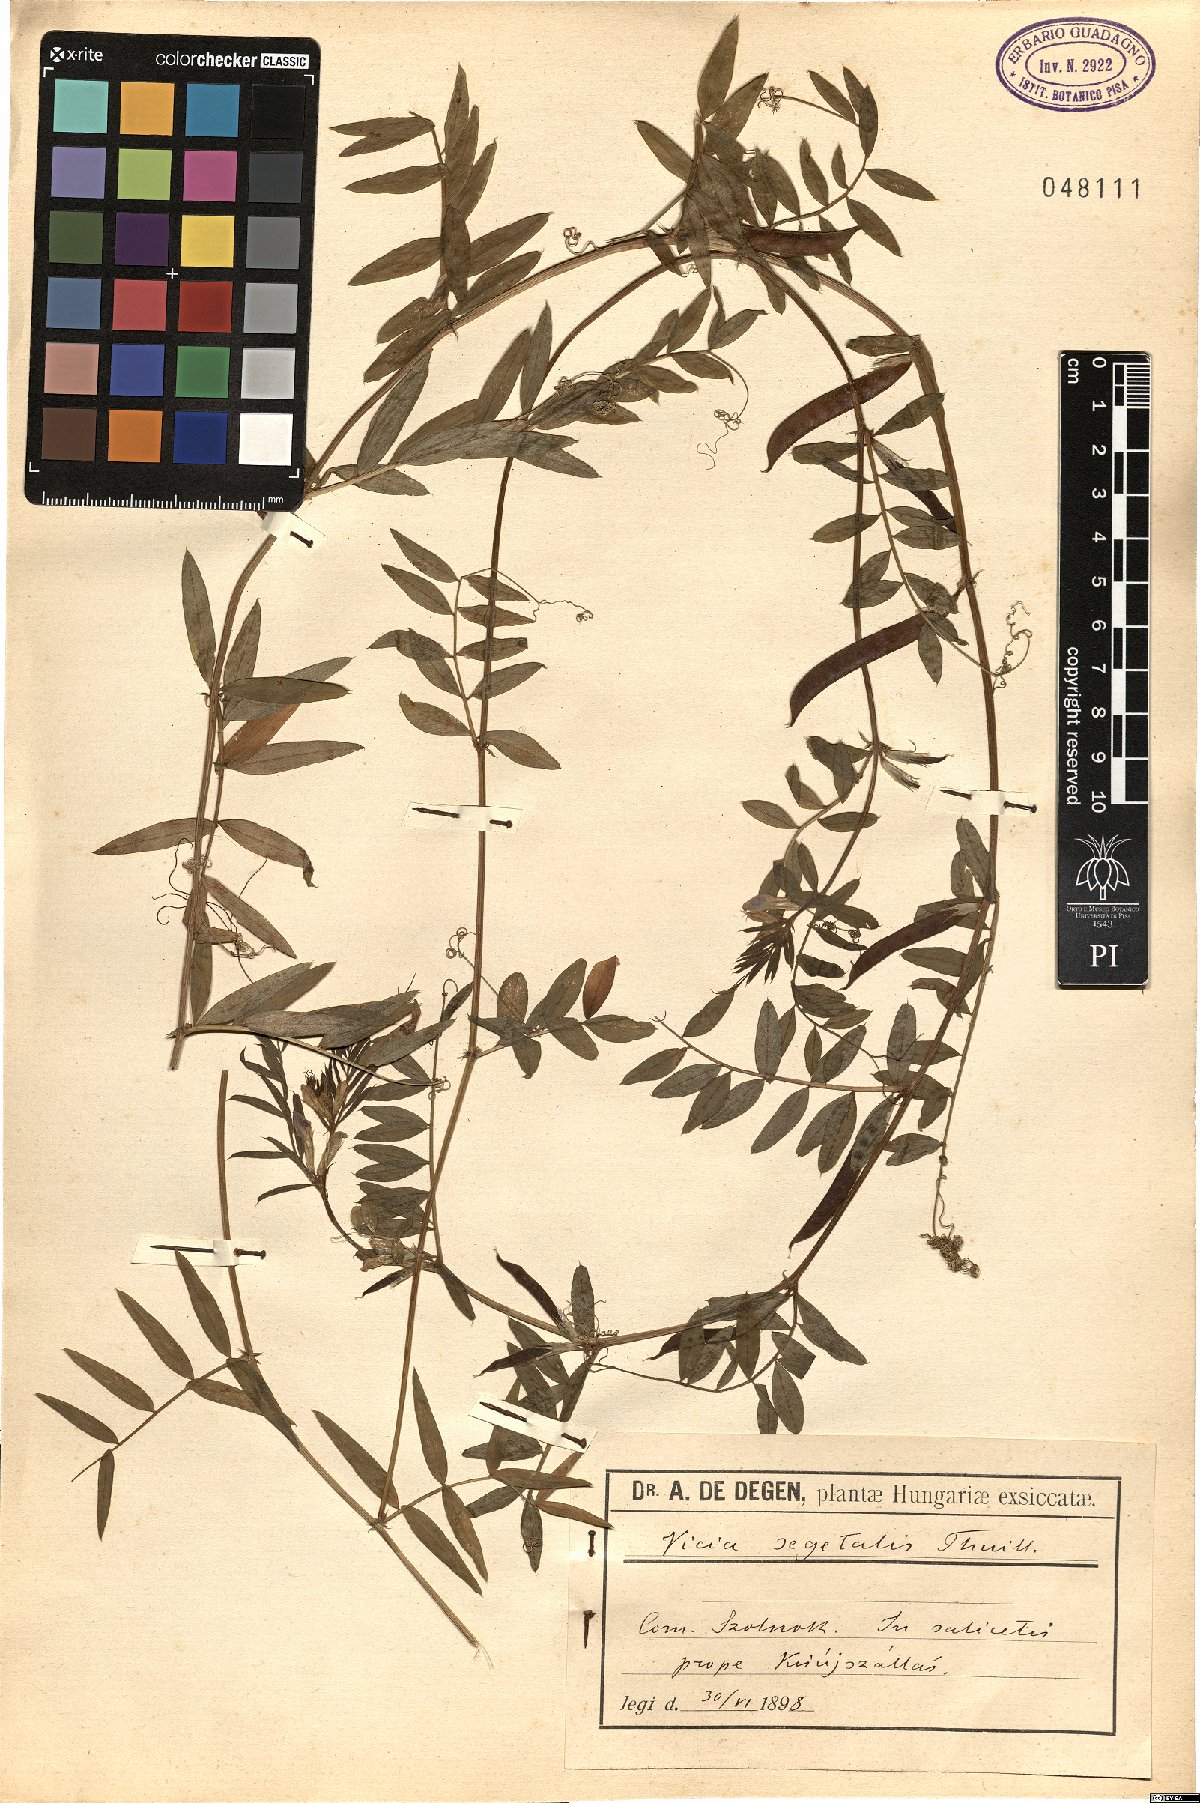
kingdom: Plantae
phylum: Tracheophyta
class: Magnoliopsida
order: Fabales
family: Fabaceae
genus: Vicia
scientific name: Vicia sativa
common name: Garden vetch
